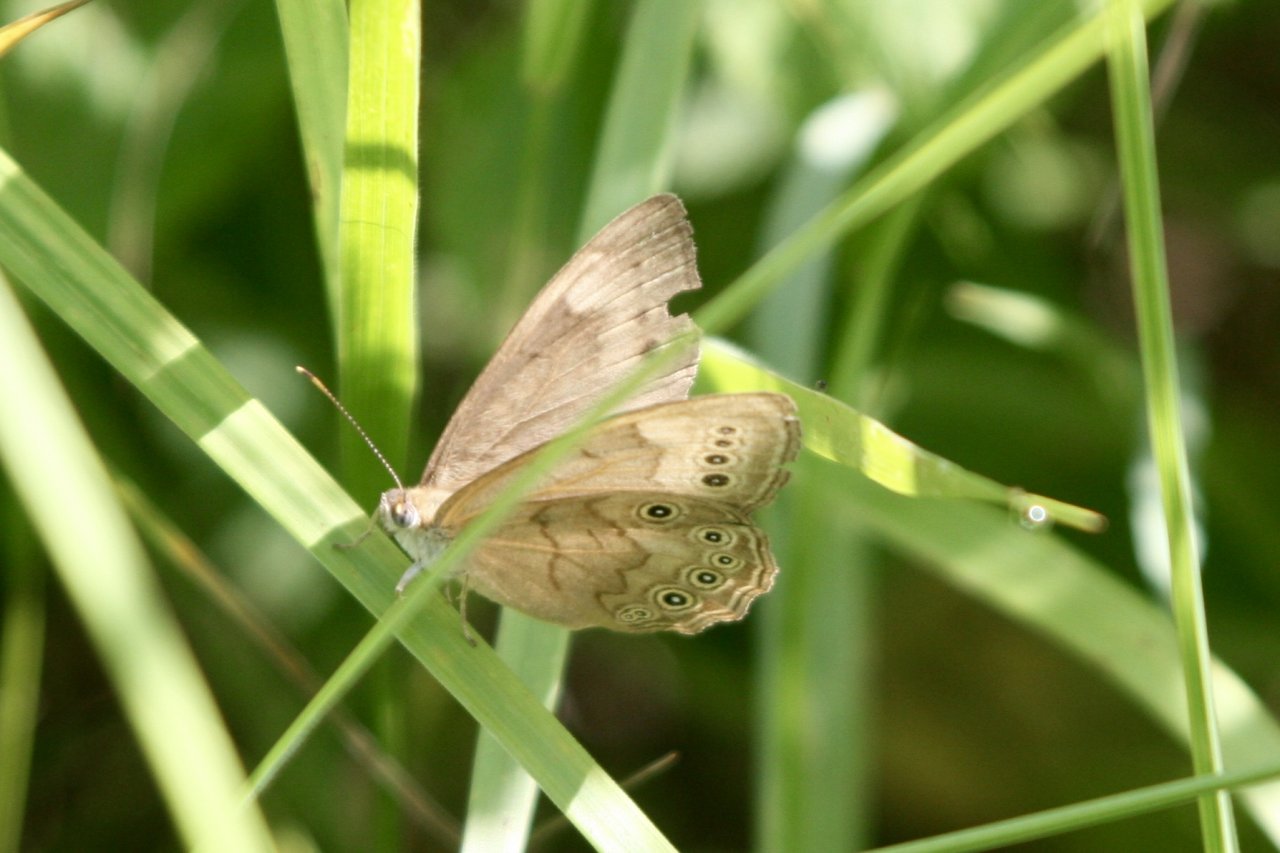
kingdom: Animalia
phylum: Arthropoda
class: Insecta
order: Lepidoptera
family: Nymphalidae
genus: Lethe
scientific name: Lethe eurydice
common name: Eyed Brown
